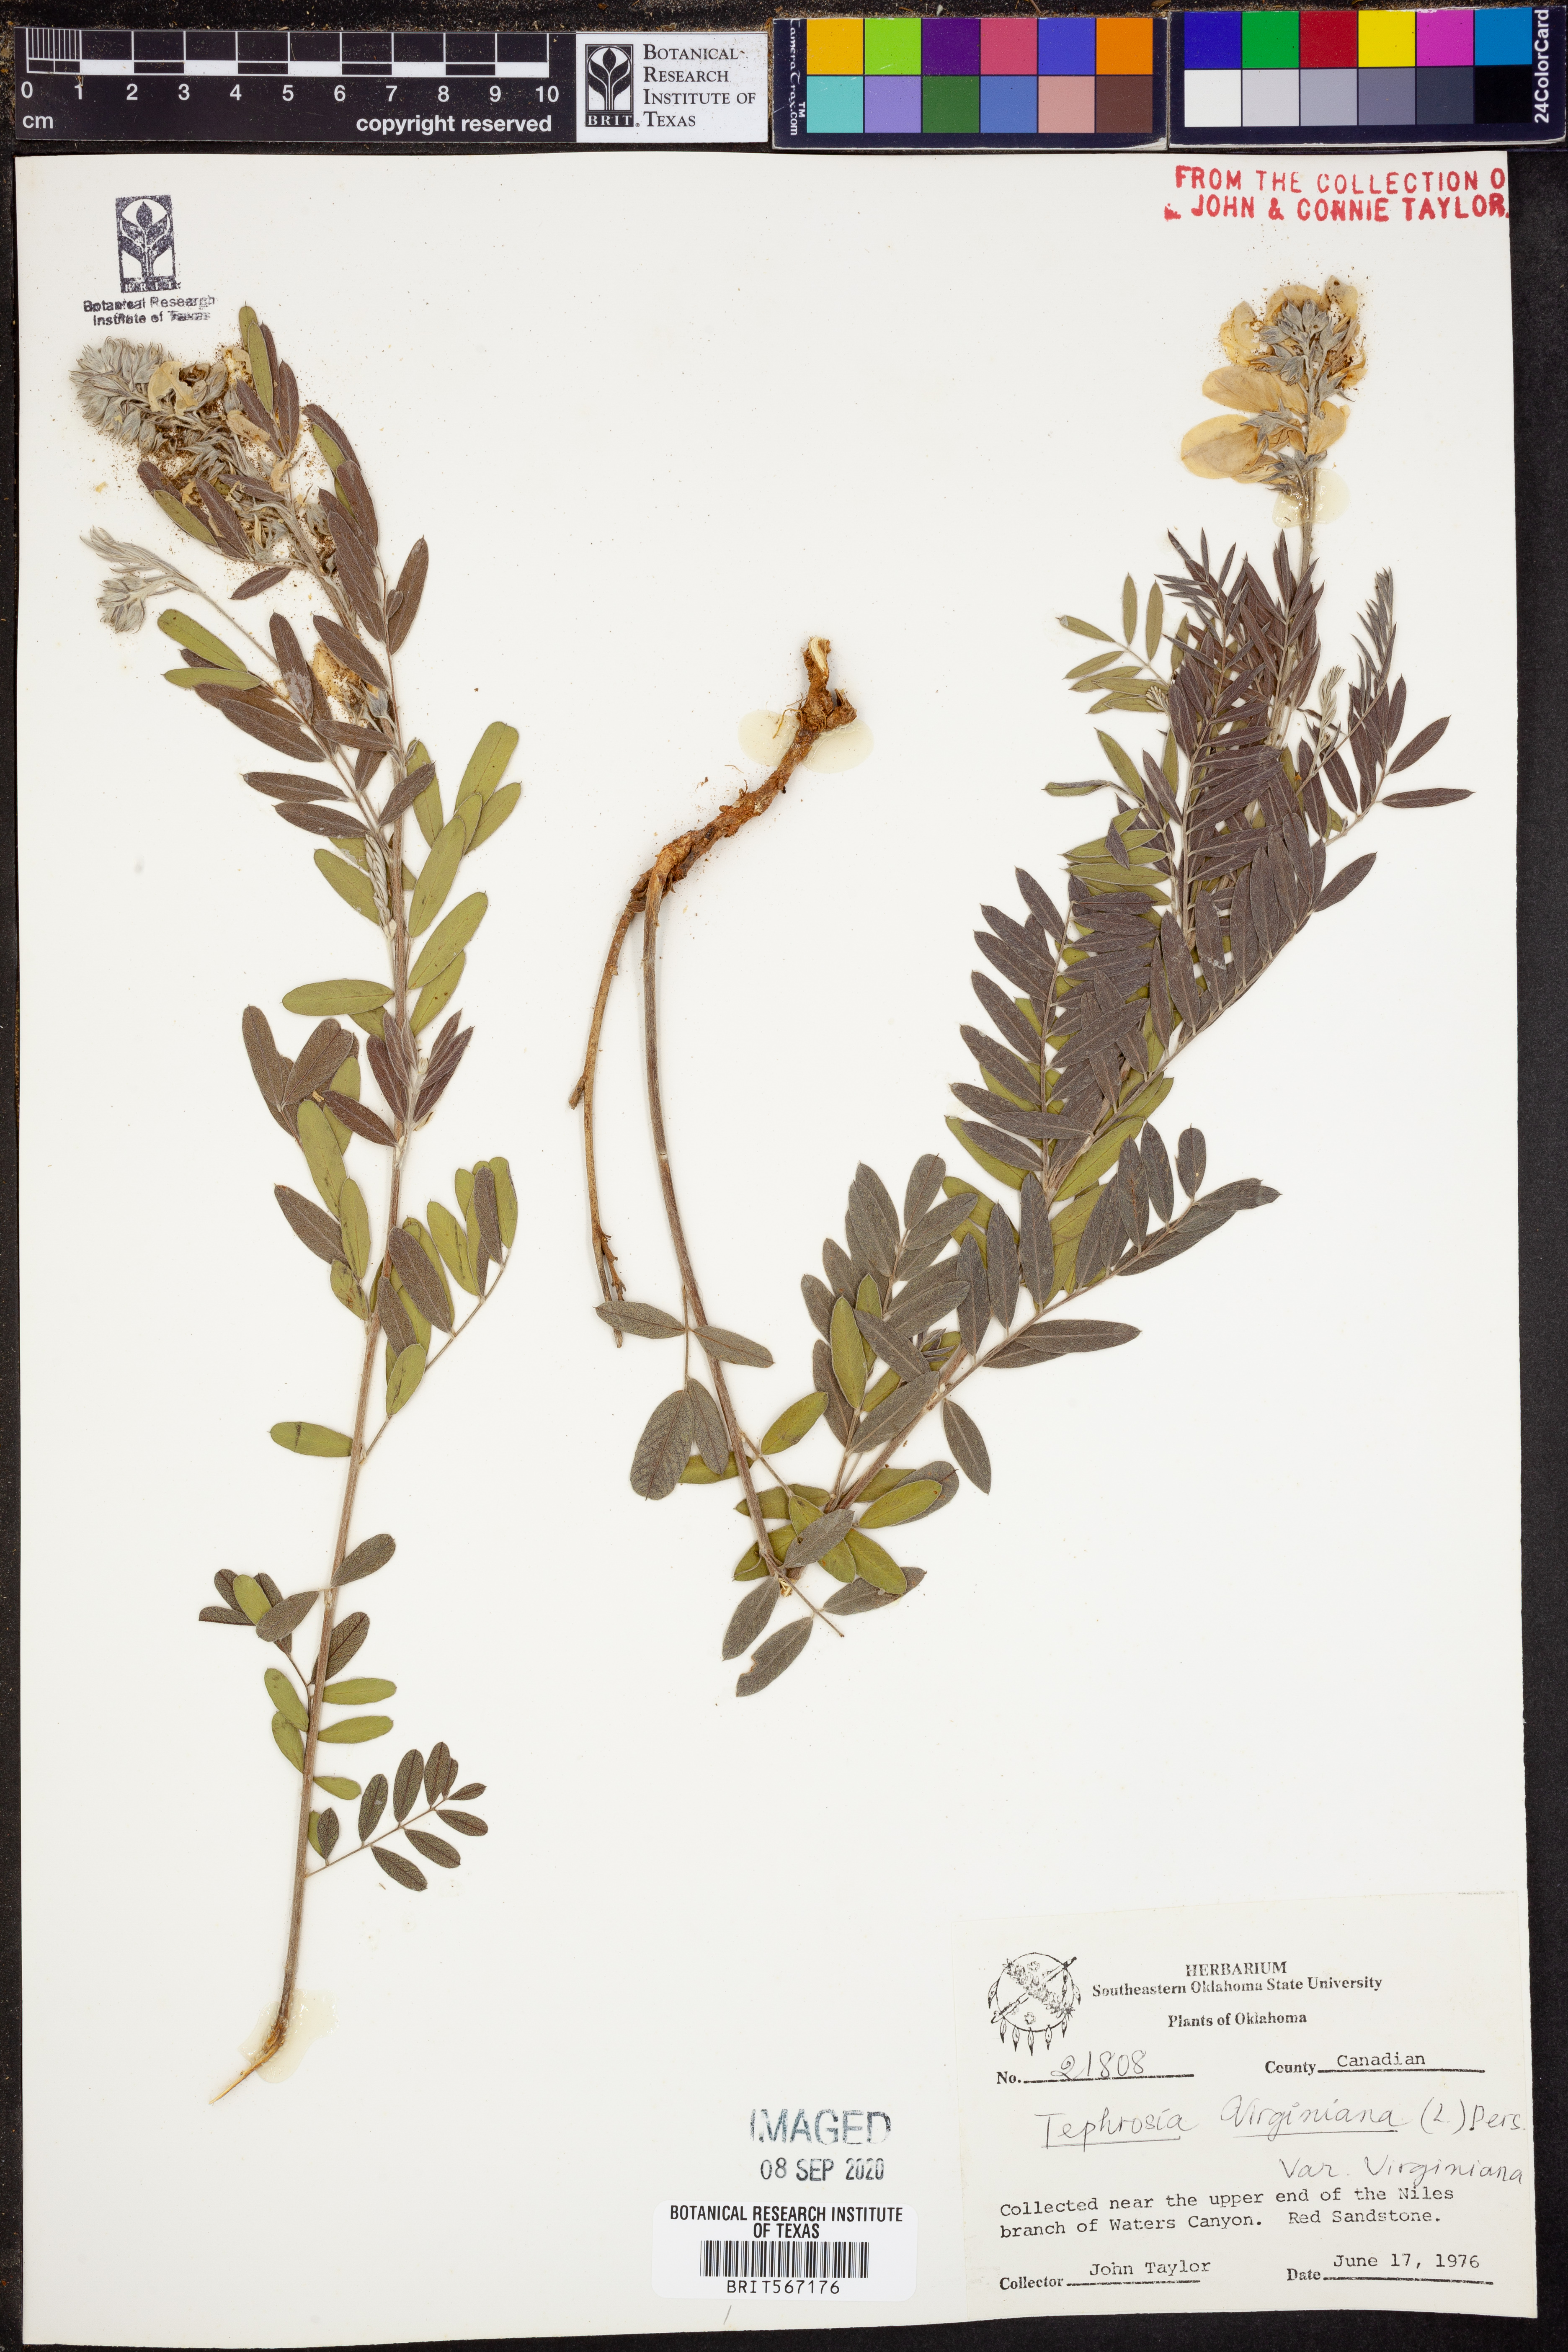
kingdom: Plantae
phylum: Tracheophyta
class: Magnoliopsida
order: Fabales
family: Fabaceae
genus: Tephrosia
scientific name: Tephrosia virginiana
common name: Rabbit-pea
